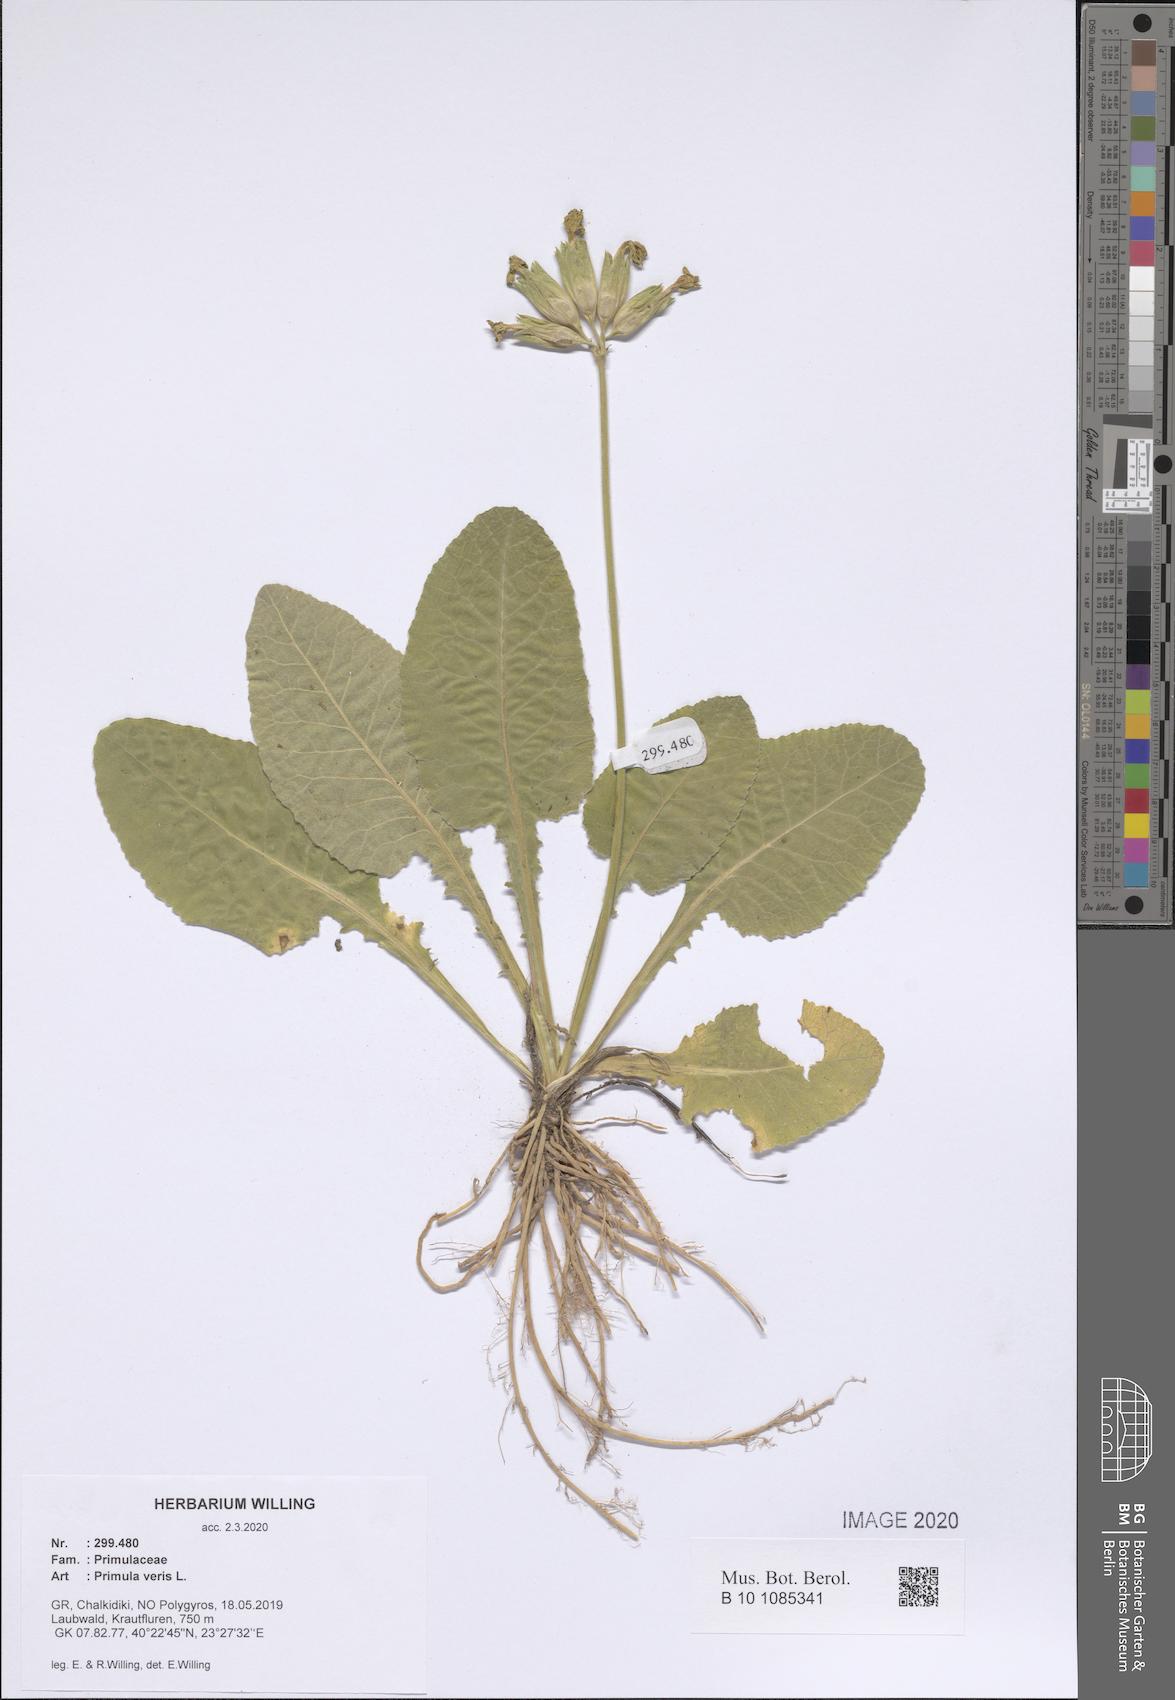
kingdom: Plantae
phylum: Tracheophyta
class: Magnoliopsida
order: Ericales
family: Primulaceae
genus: Primula
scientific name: Primula veris
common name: Cowslip
